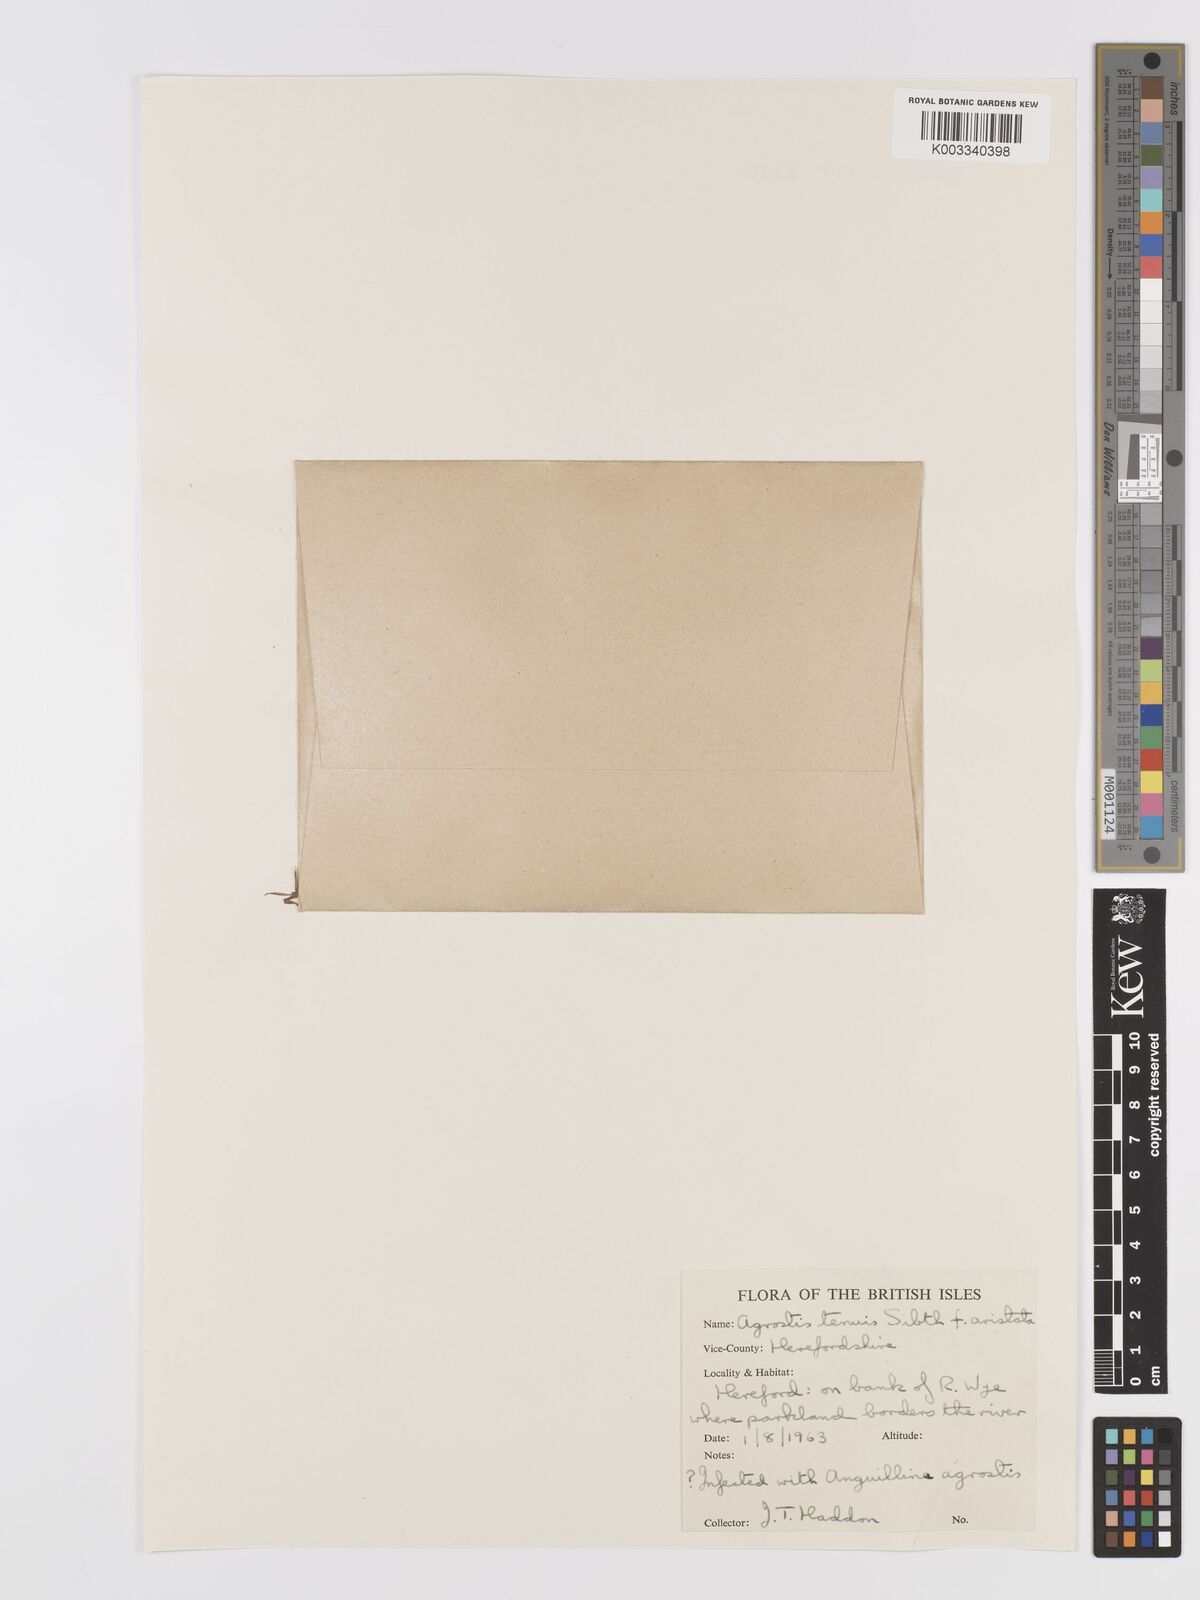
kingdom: Plantae
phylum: Tracheophyta
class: Liliopsida
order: Poales
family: Poaceae
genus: Agrostis
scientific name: Agrostis capillaris
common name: Colonial bentgrass
